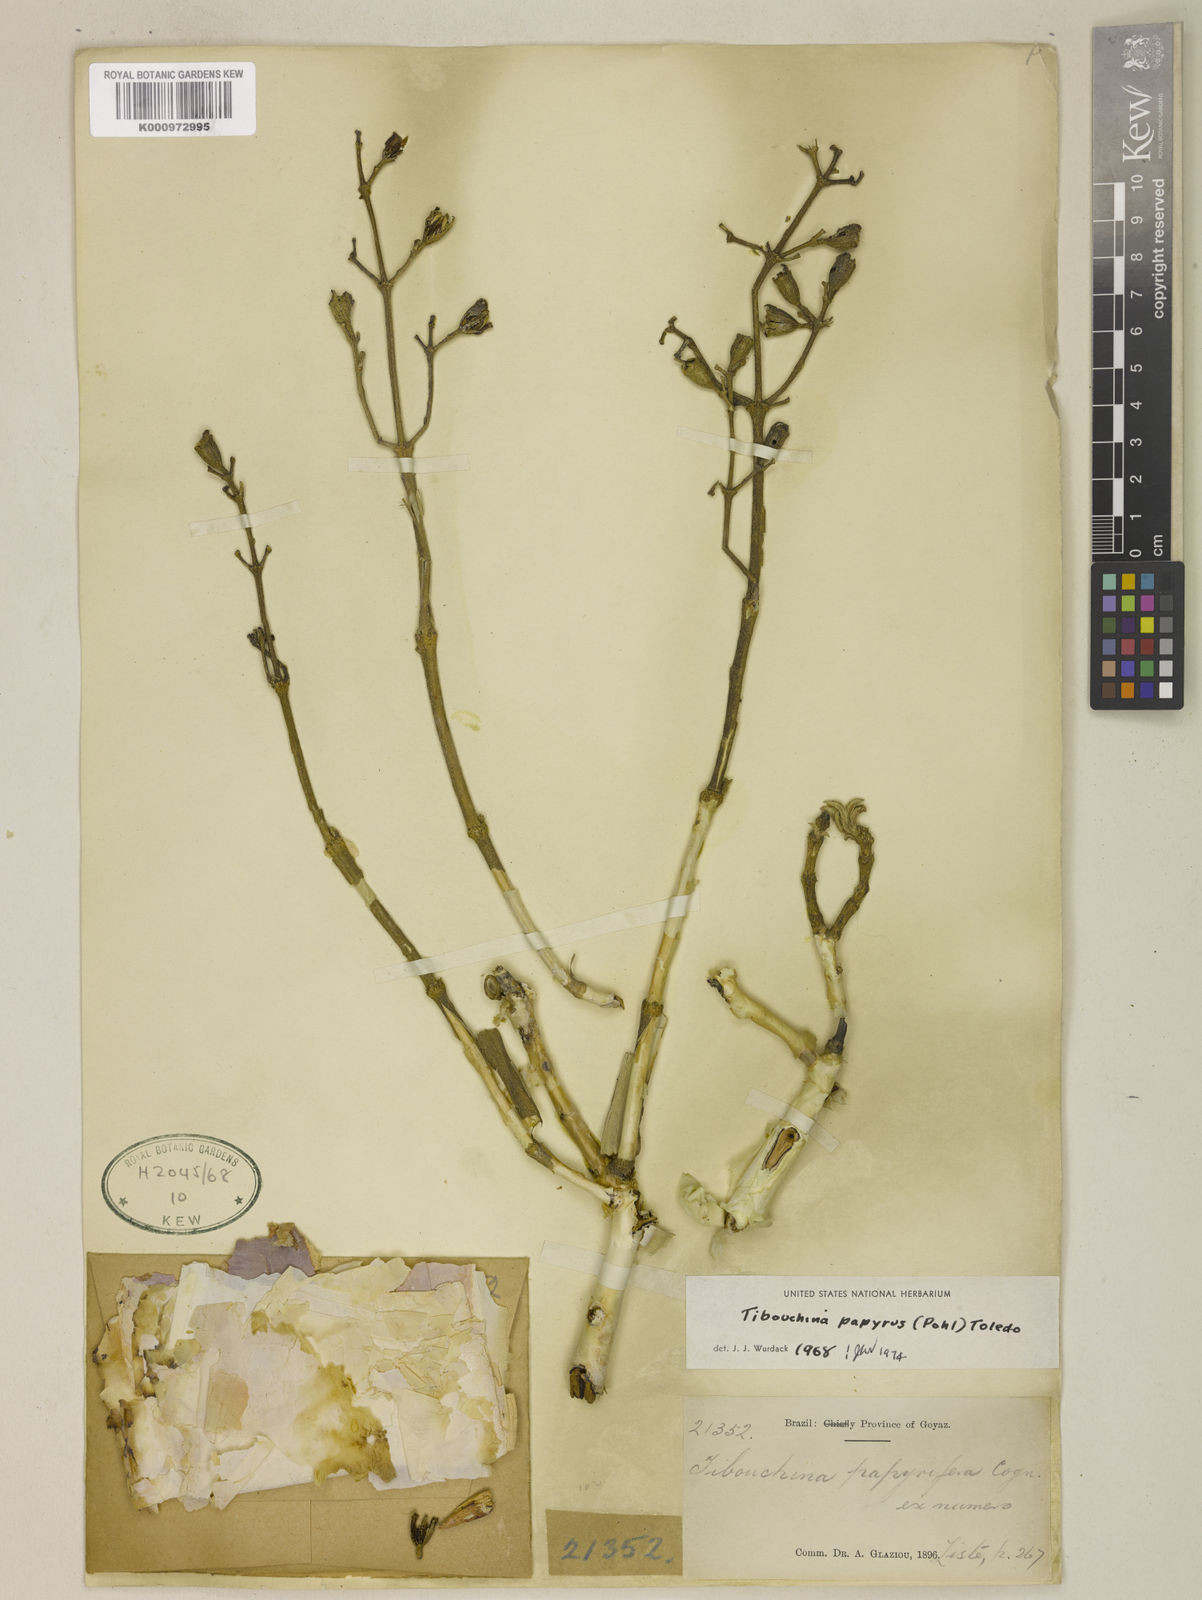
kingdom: Plantae
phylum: Tracheophyta
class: Magnoliopsida
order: Myrtales
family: Melastomataceae
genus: Tibouchina
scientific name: Tibouchina
